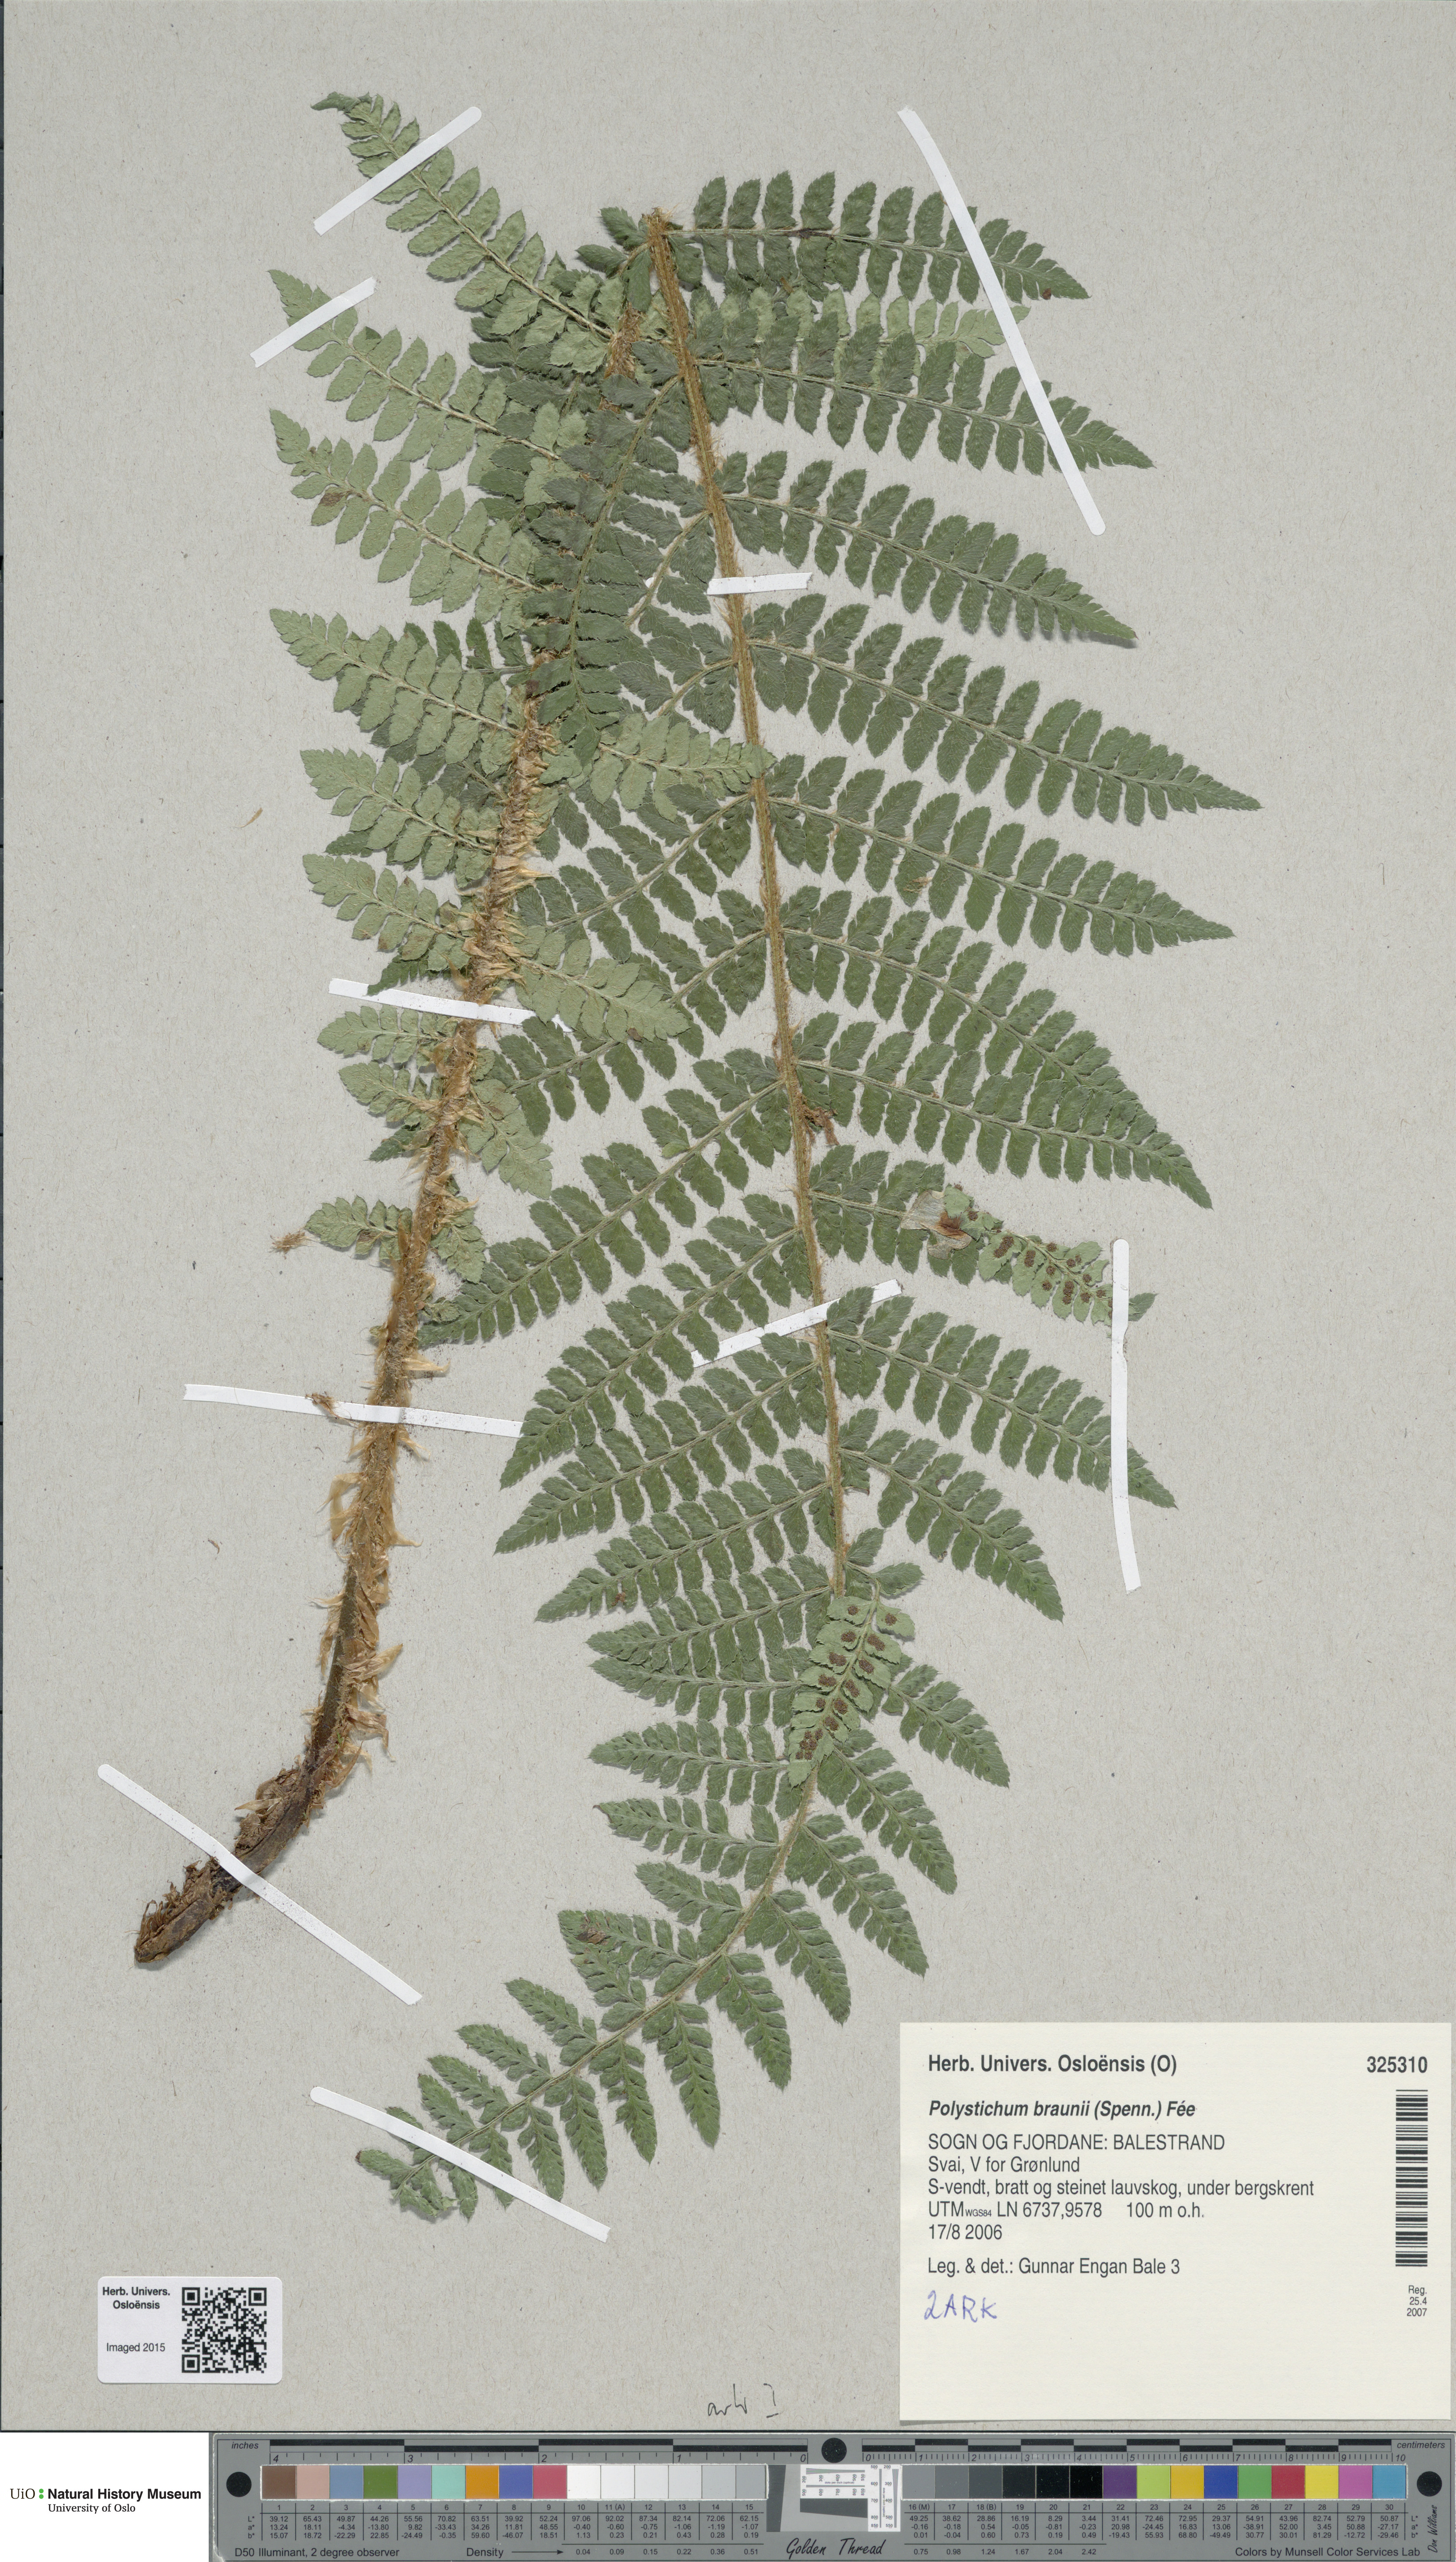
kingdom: Plantae
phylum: Tracheophyta
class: Polypodiopsida
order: Polypodiales
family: Dryopteridaceae
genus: Polystichum
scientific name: Polystichum braunii
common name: Braun's holly fern
